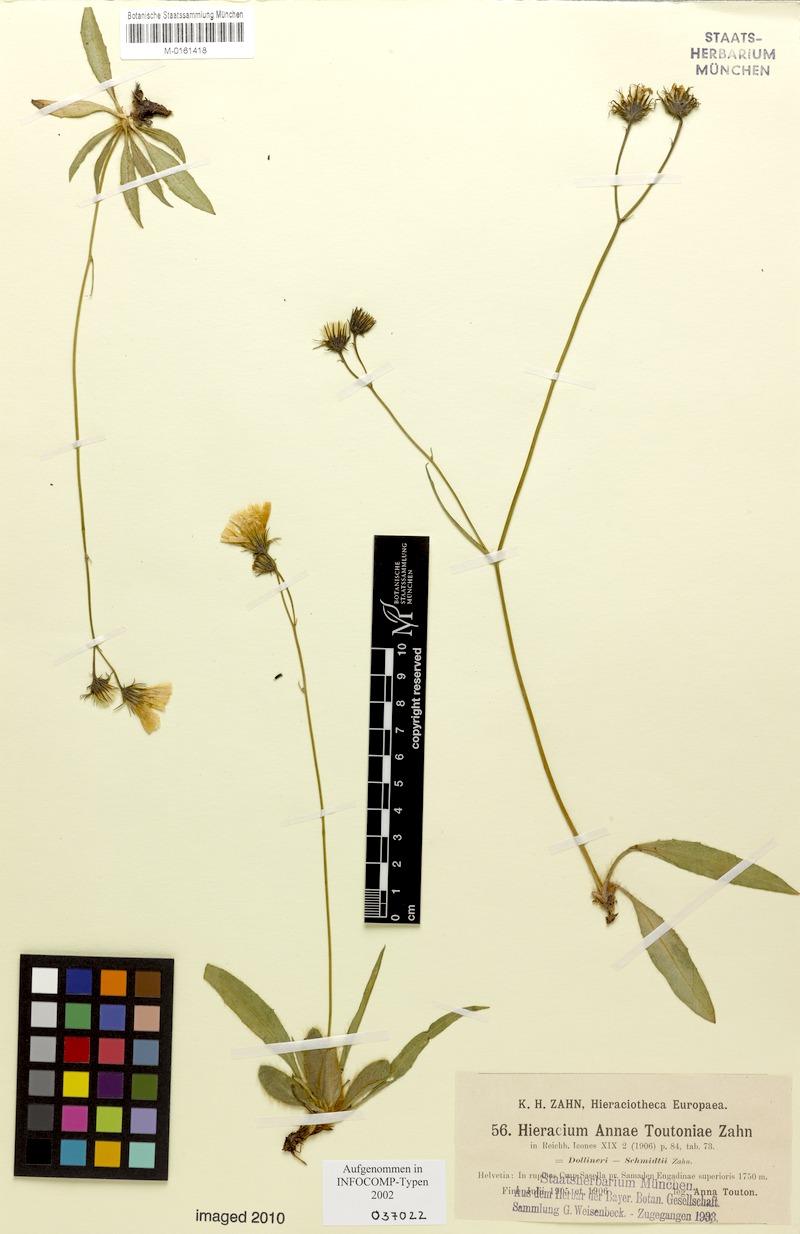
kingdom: Plantae
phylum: Tracheophyta
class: Magnoliopsida
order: Asterales
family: Asteraceae
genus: Hieracium
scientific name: Hieracium annae-toutoniae
